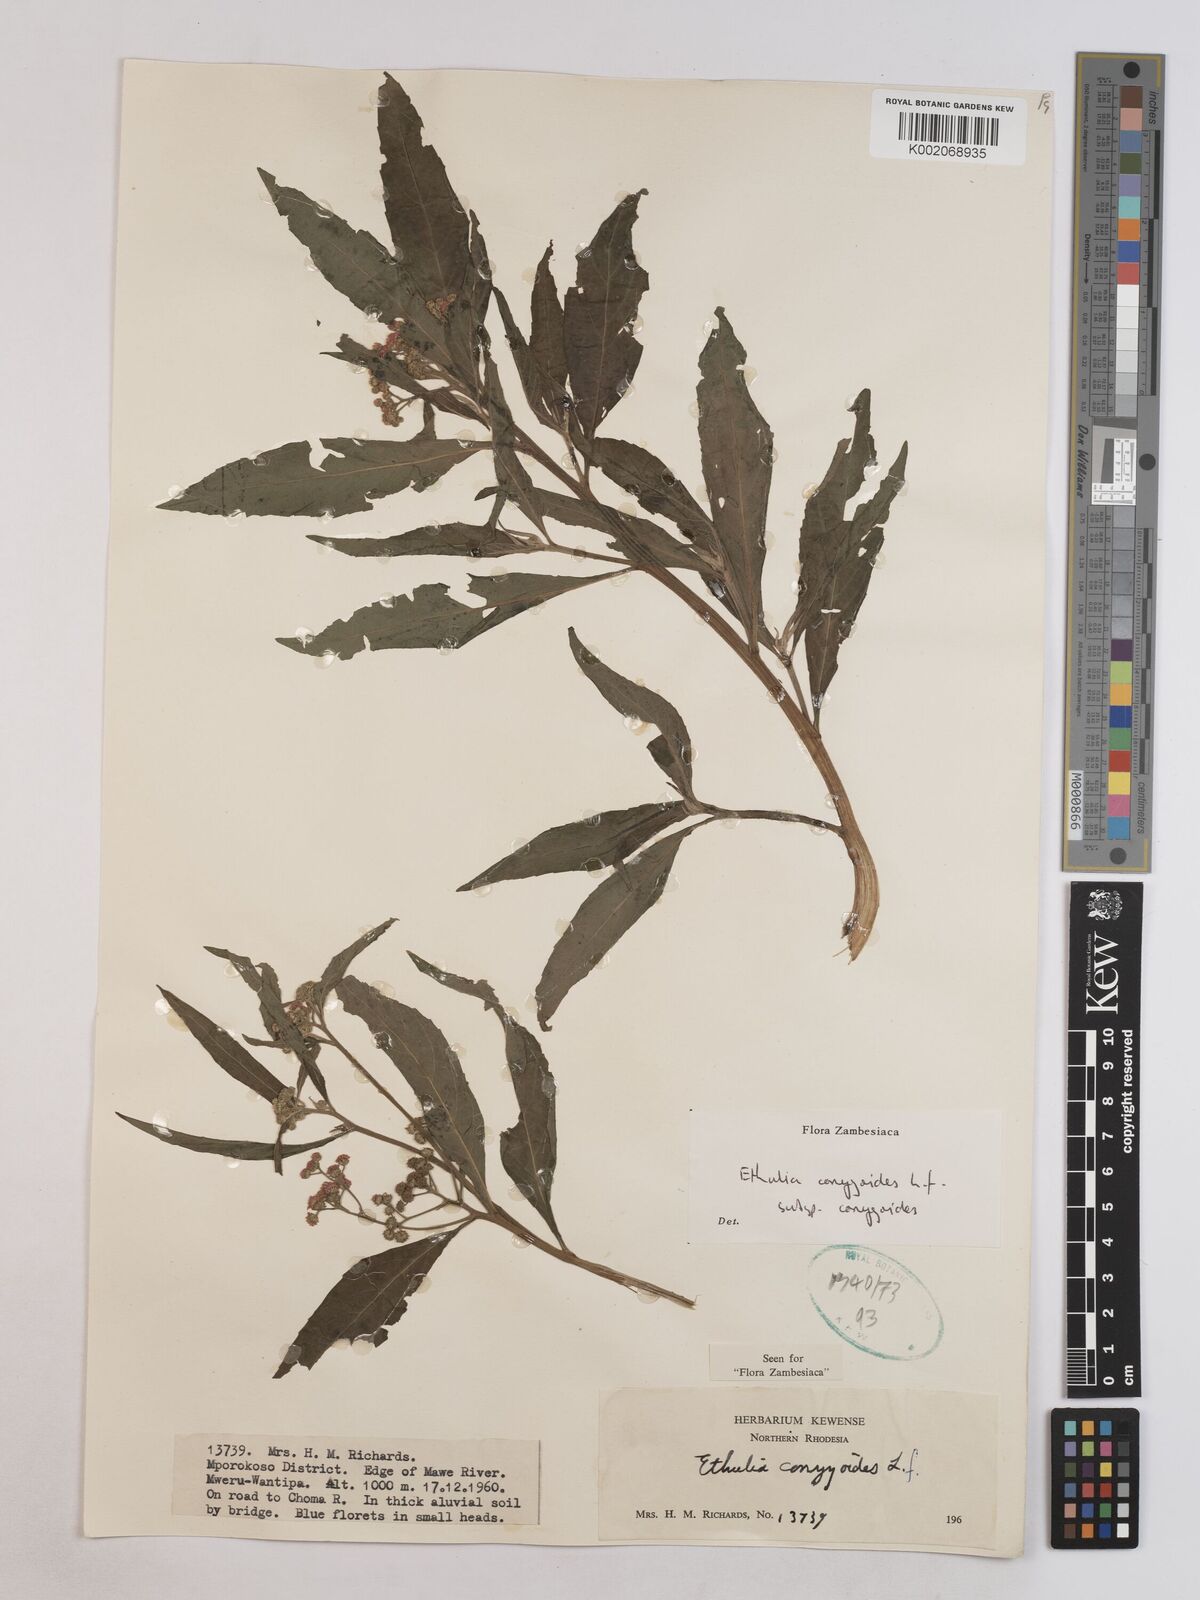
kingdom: Plantae
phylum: Tracheophyta
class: Magnoliopsida
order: Asterales
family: Asteraceae
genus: Ethulia
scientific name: Ethulia conyzoides
